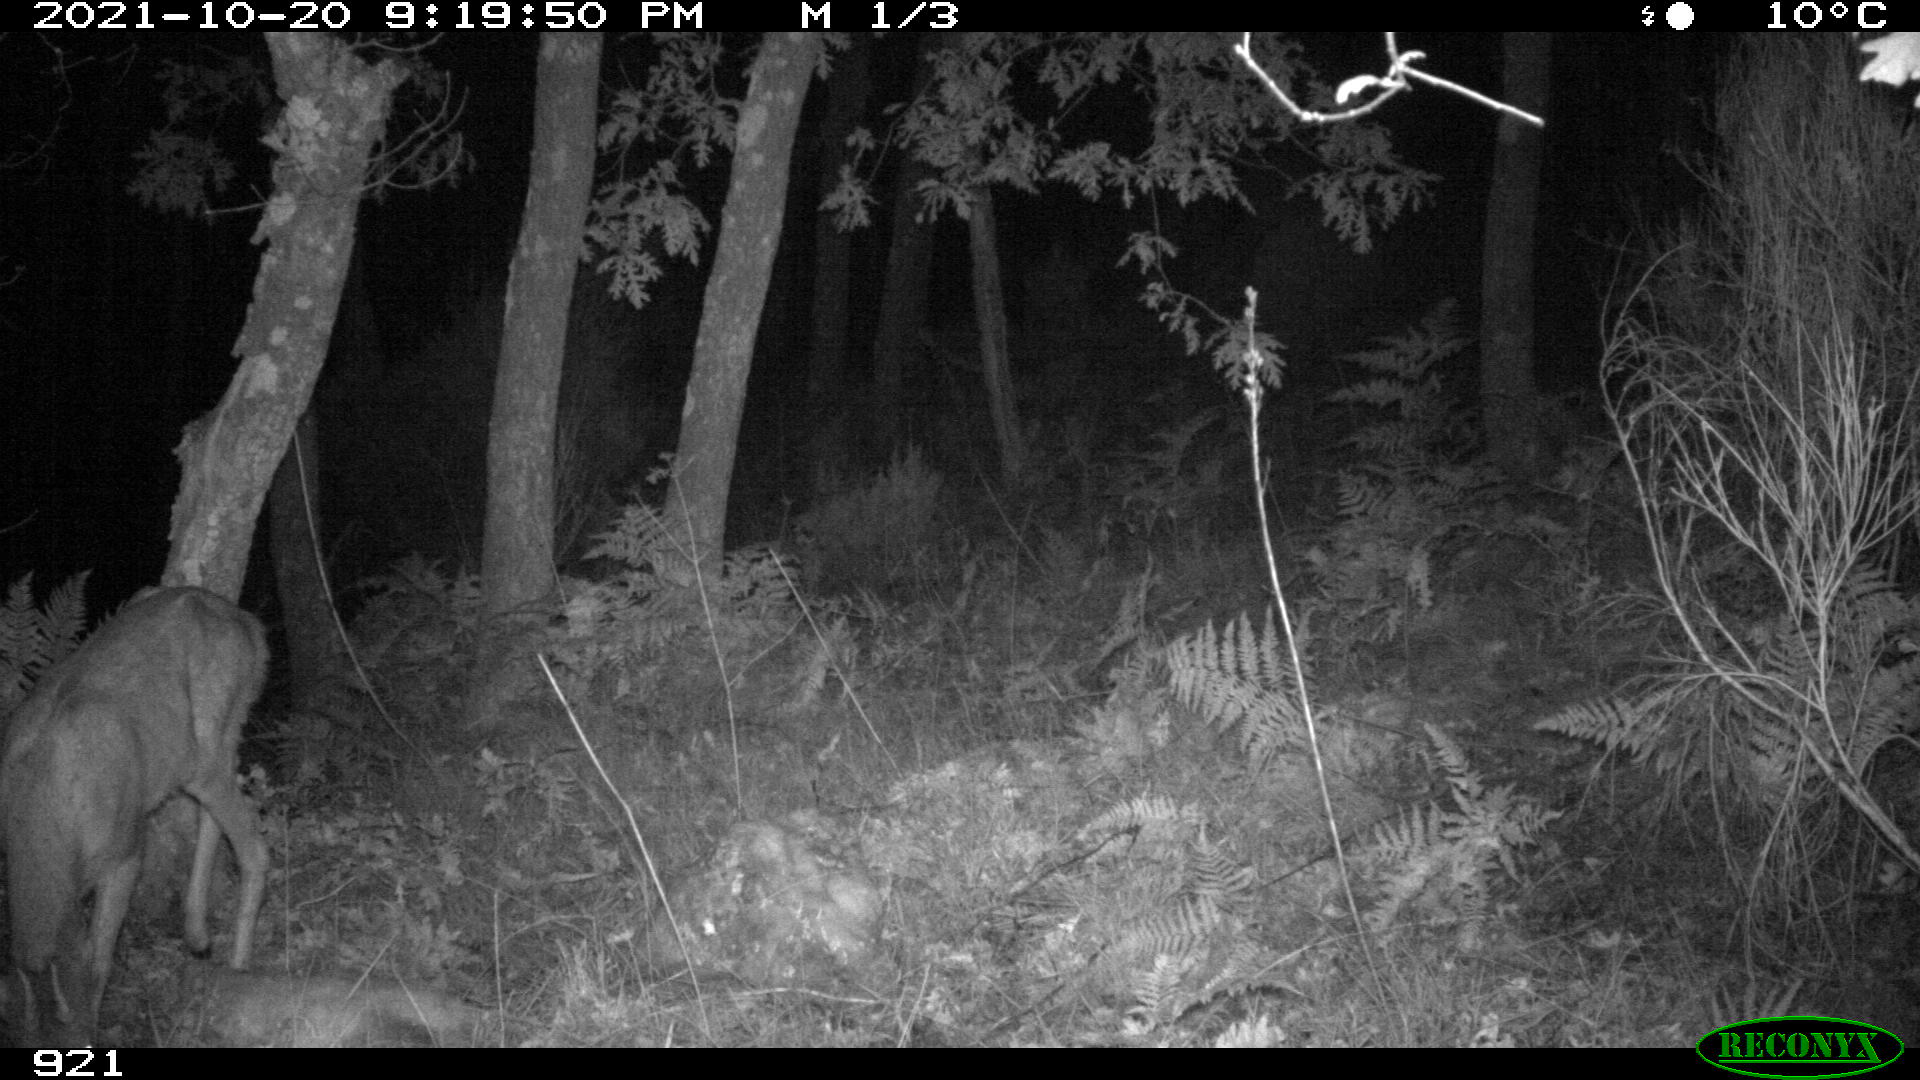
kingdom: Animalia
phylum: Chordata
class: Mammalia
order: Artiodactyla
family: Cervidae
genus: Capreolus
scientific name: Capreolus capreolus
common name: Western roe deer
